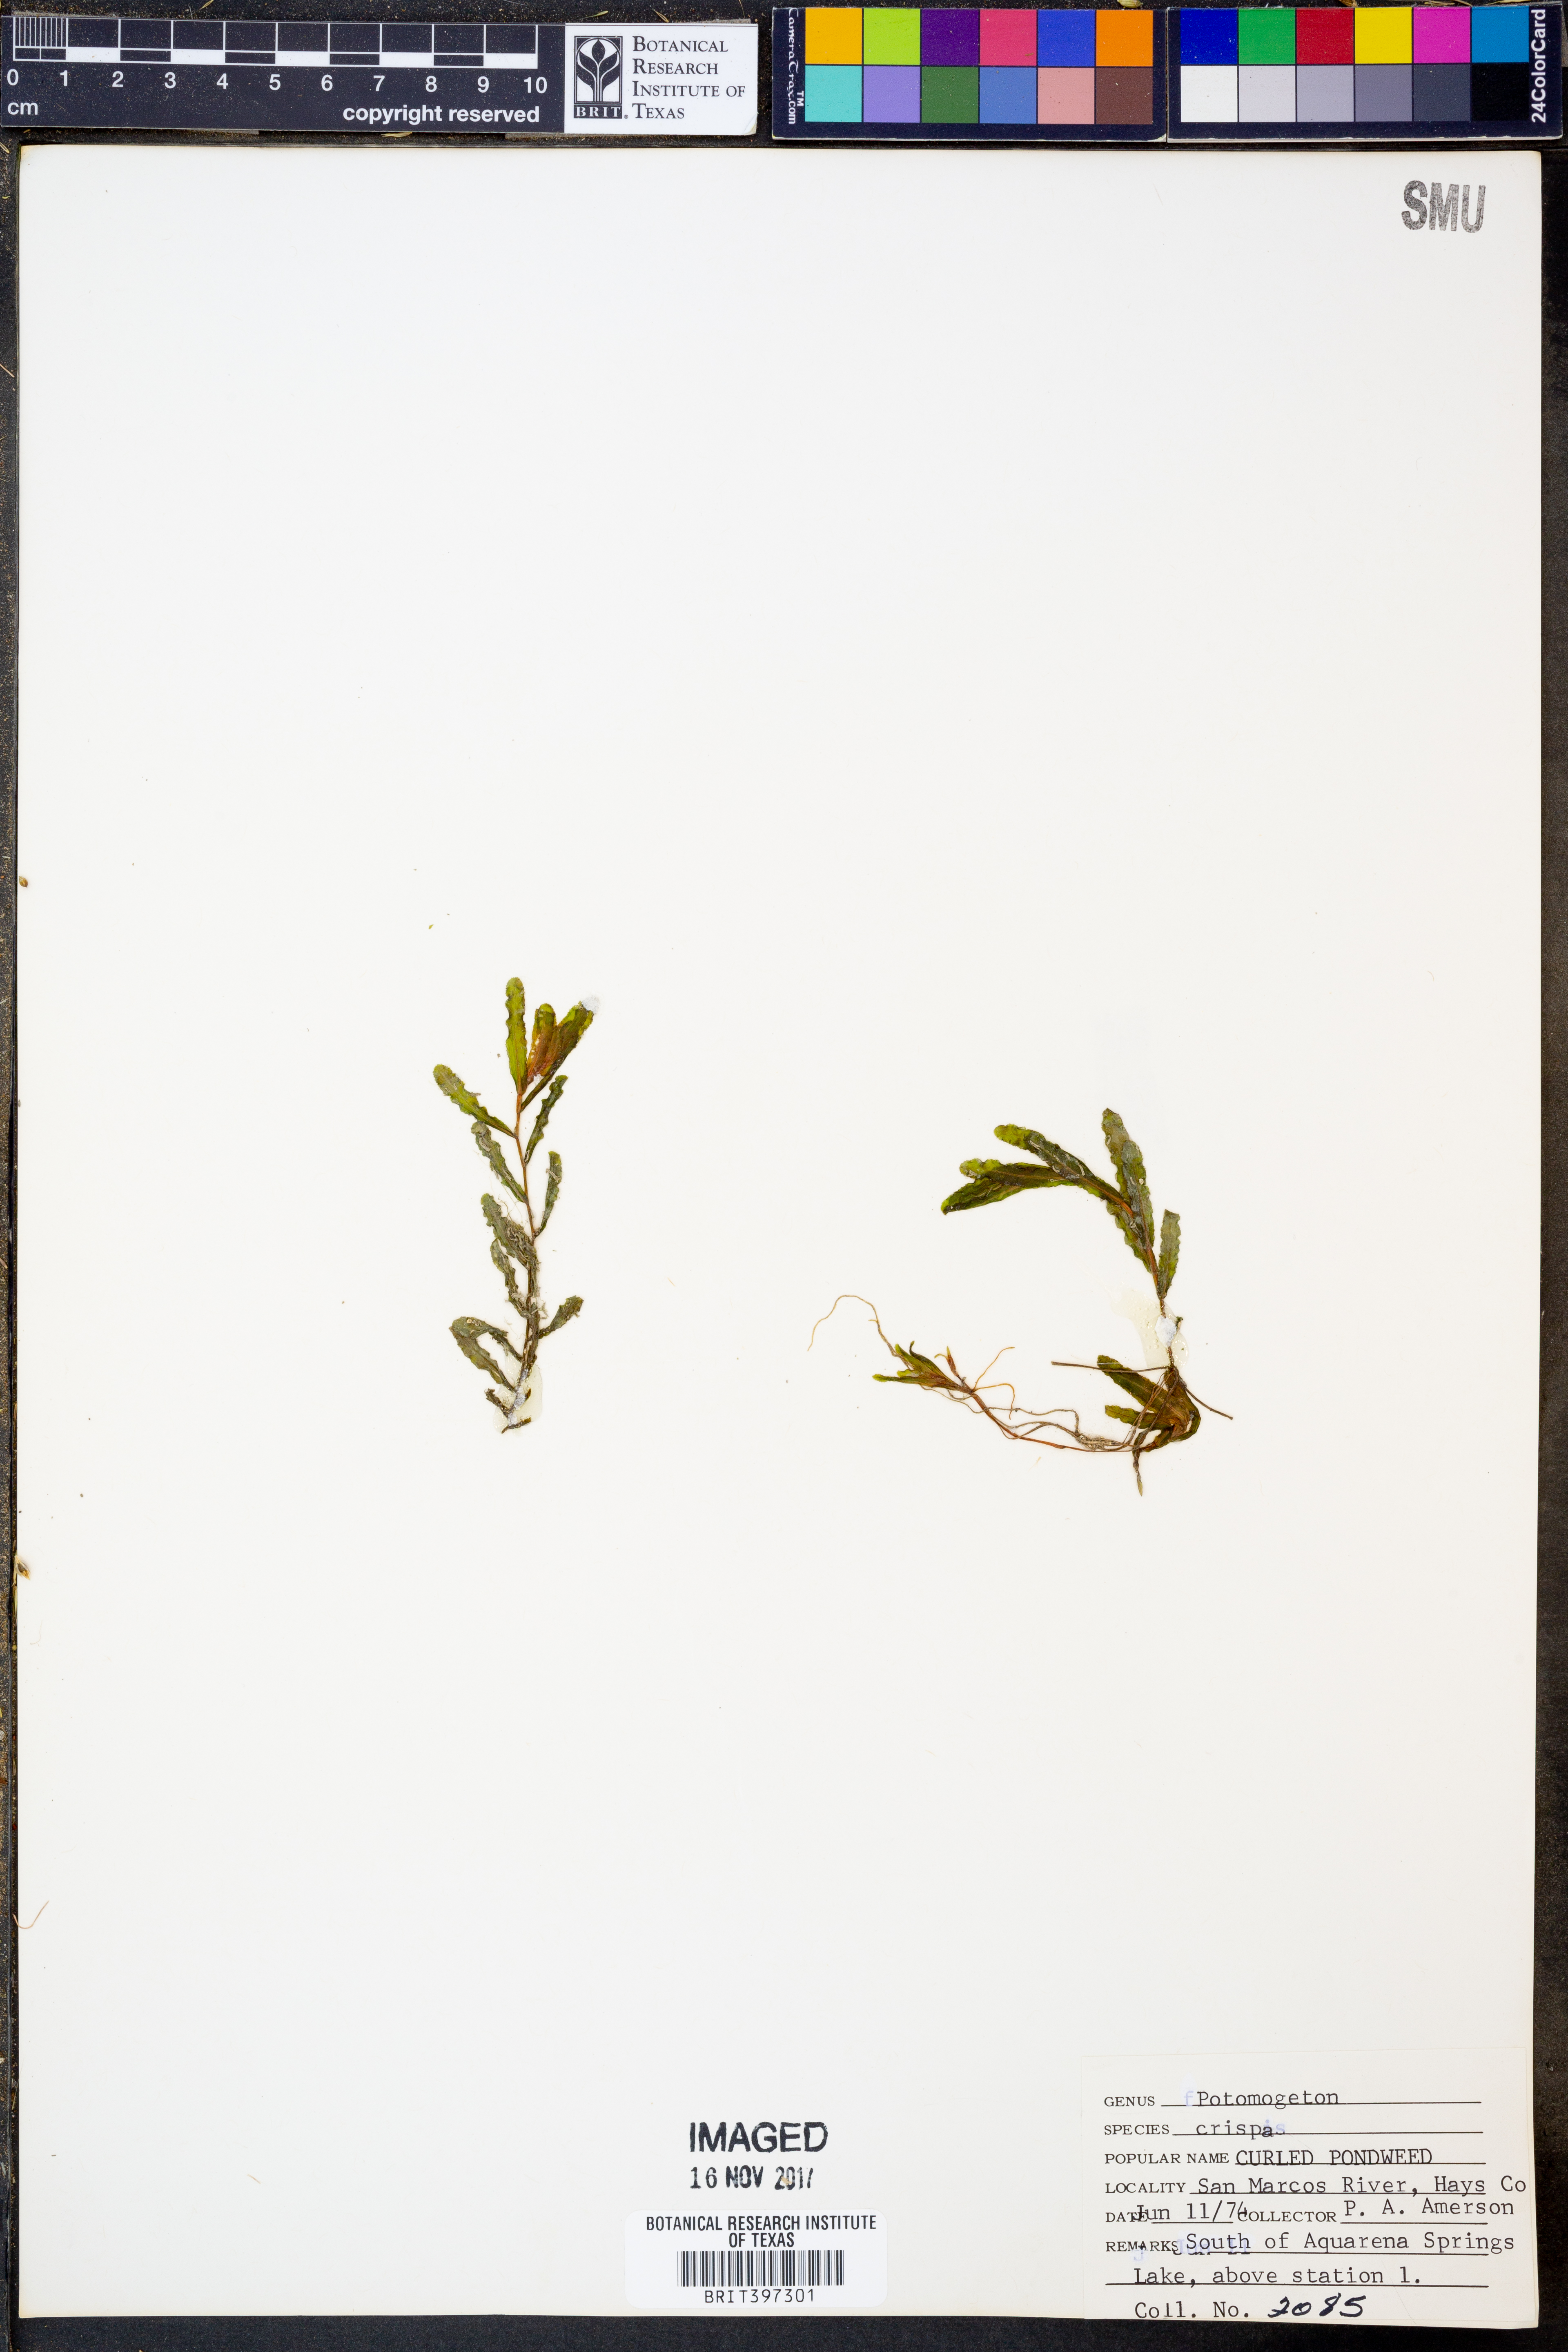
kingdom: Plantae
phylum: Tracheophyta
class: Liliopsida
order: Alismatales
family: Potamogetonaceae
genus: Potamogeton
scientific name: Potamogeton crispus
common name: Curled pondweed
